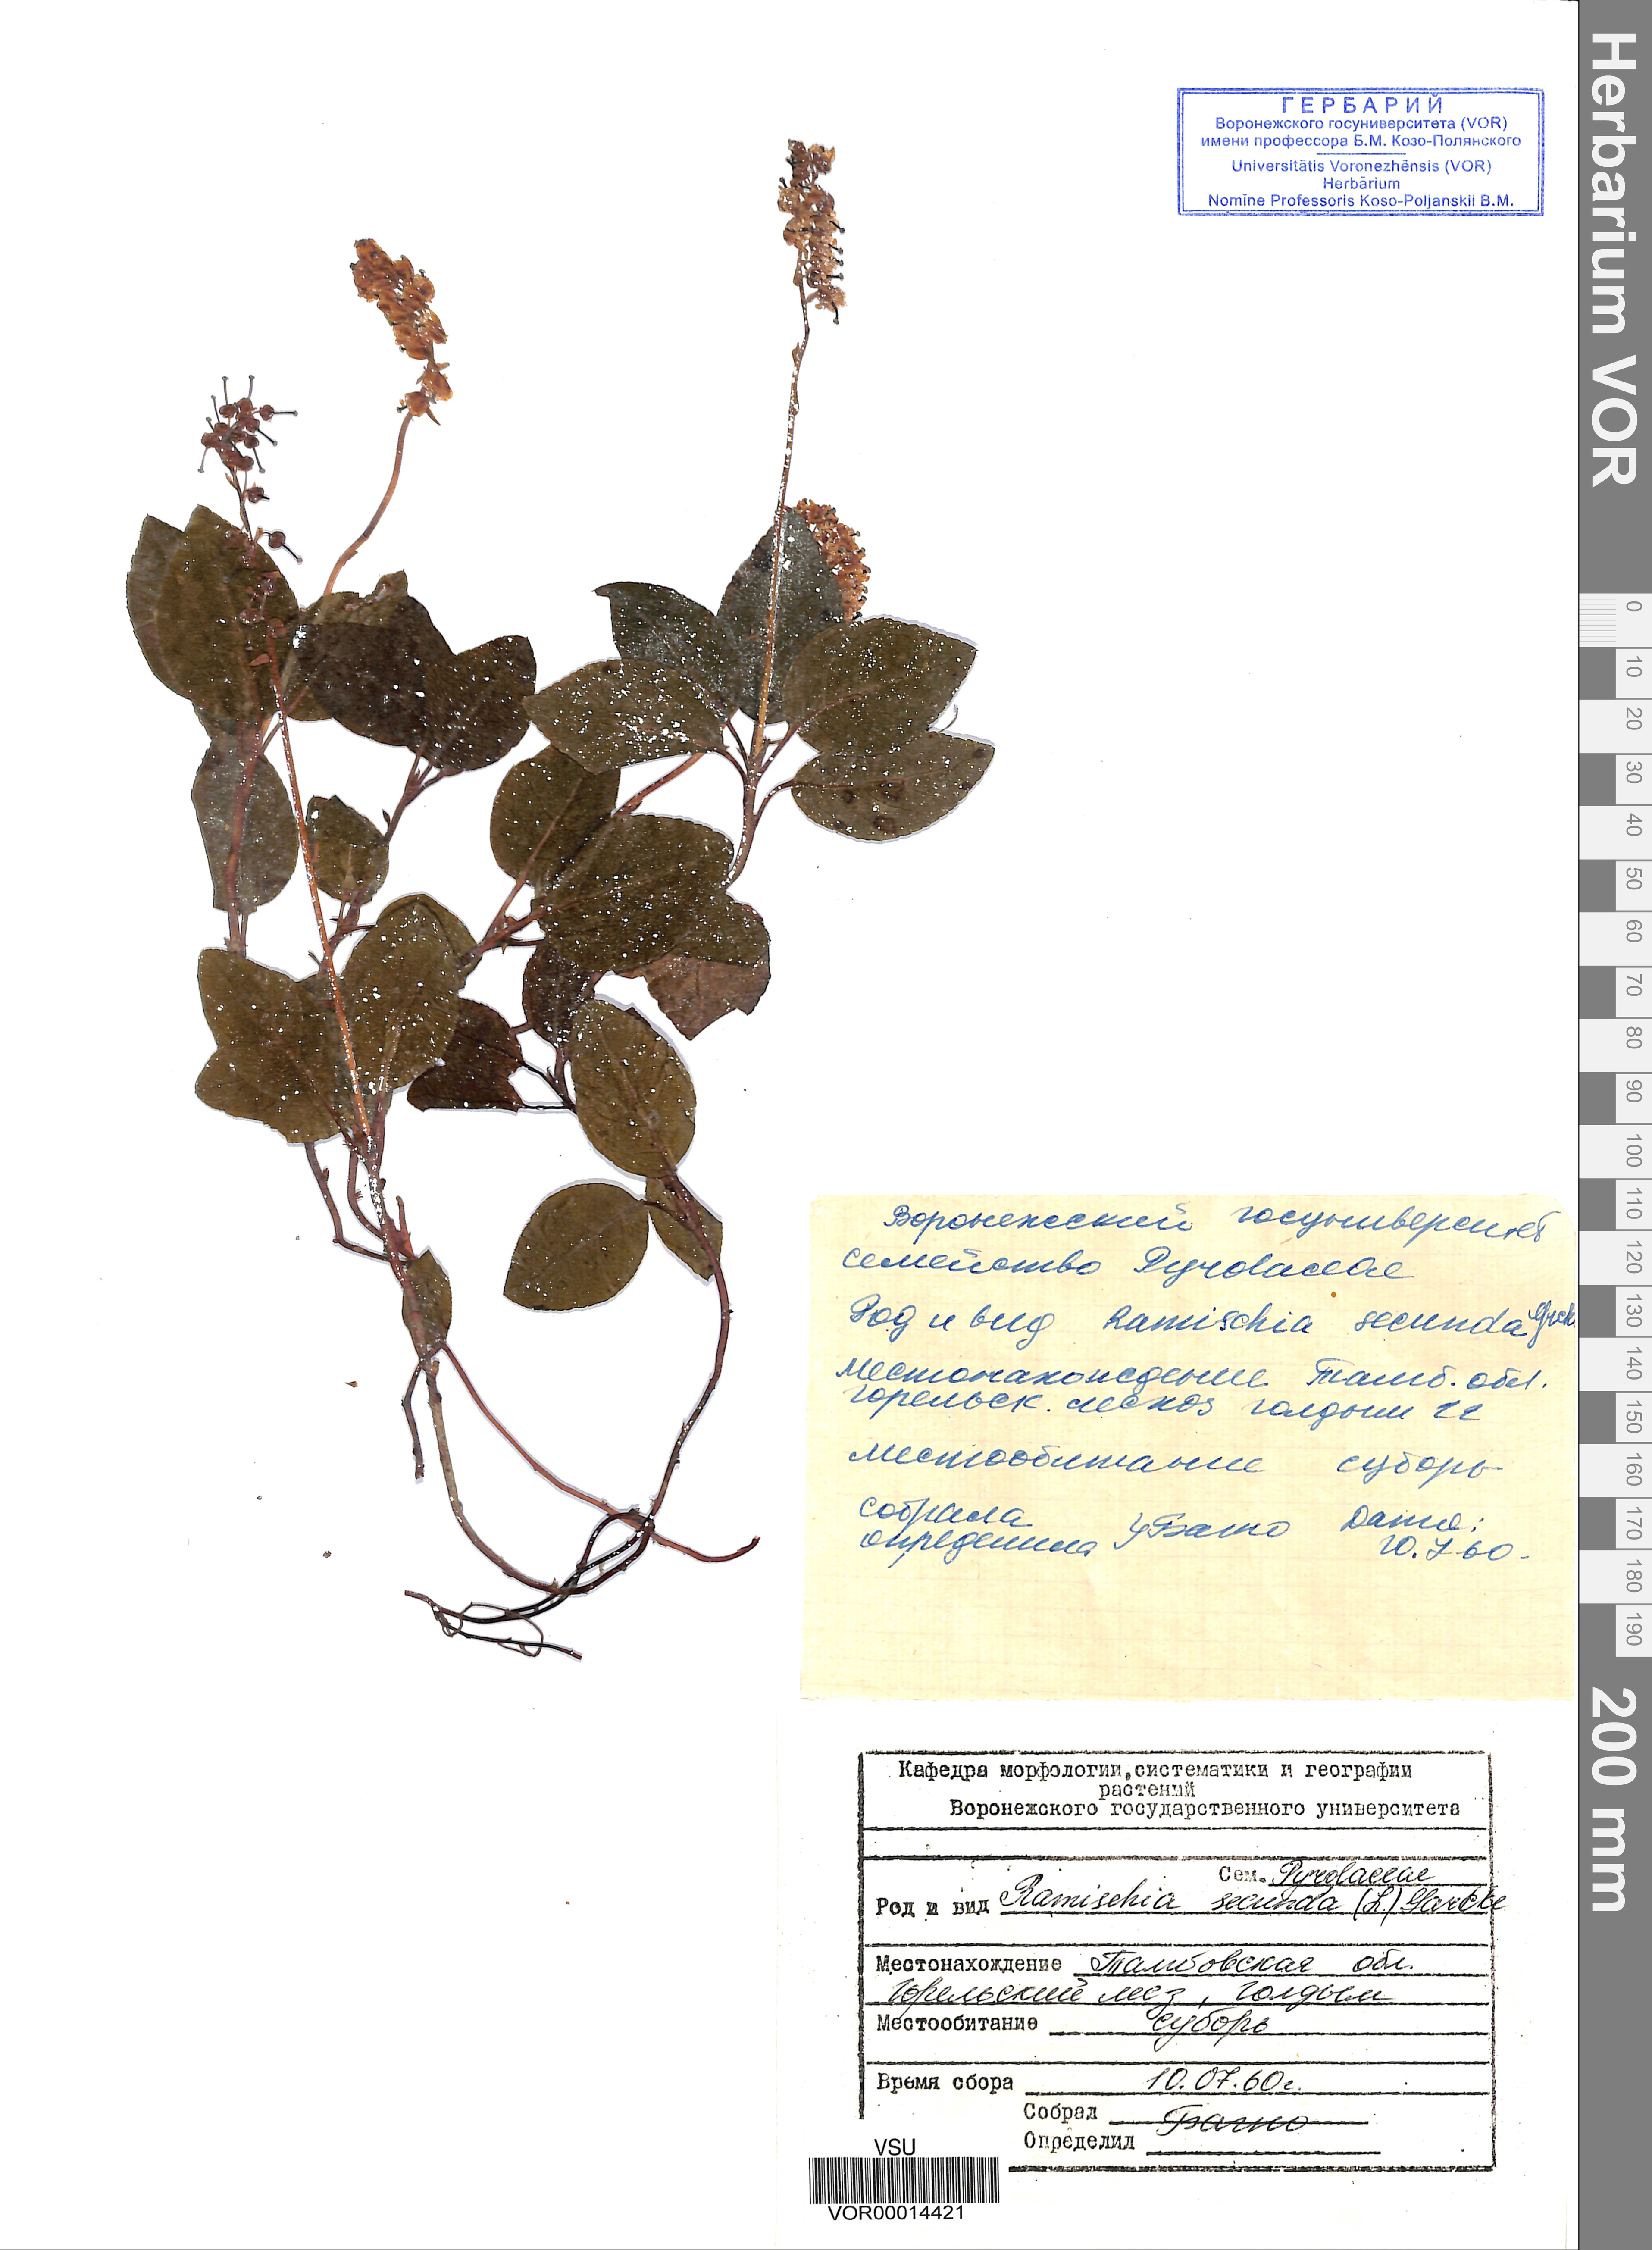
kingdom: Plantae
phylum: Tracheophyta
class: Magnoliopsida
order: Ericales
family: Ericaceae
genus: Orthilia
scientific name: Orthilia secunda
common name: One-sided orthilia
